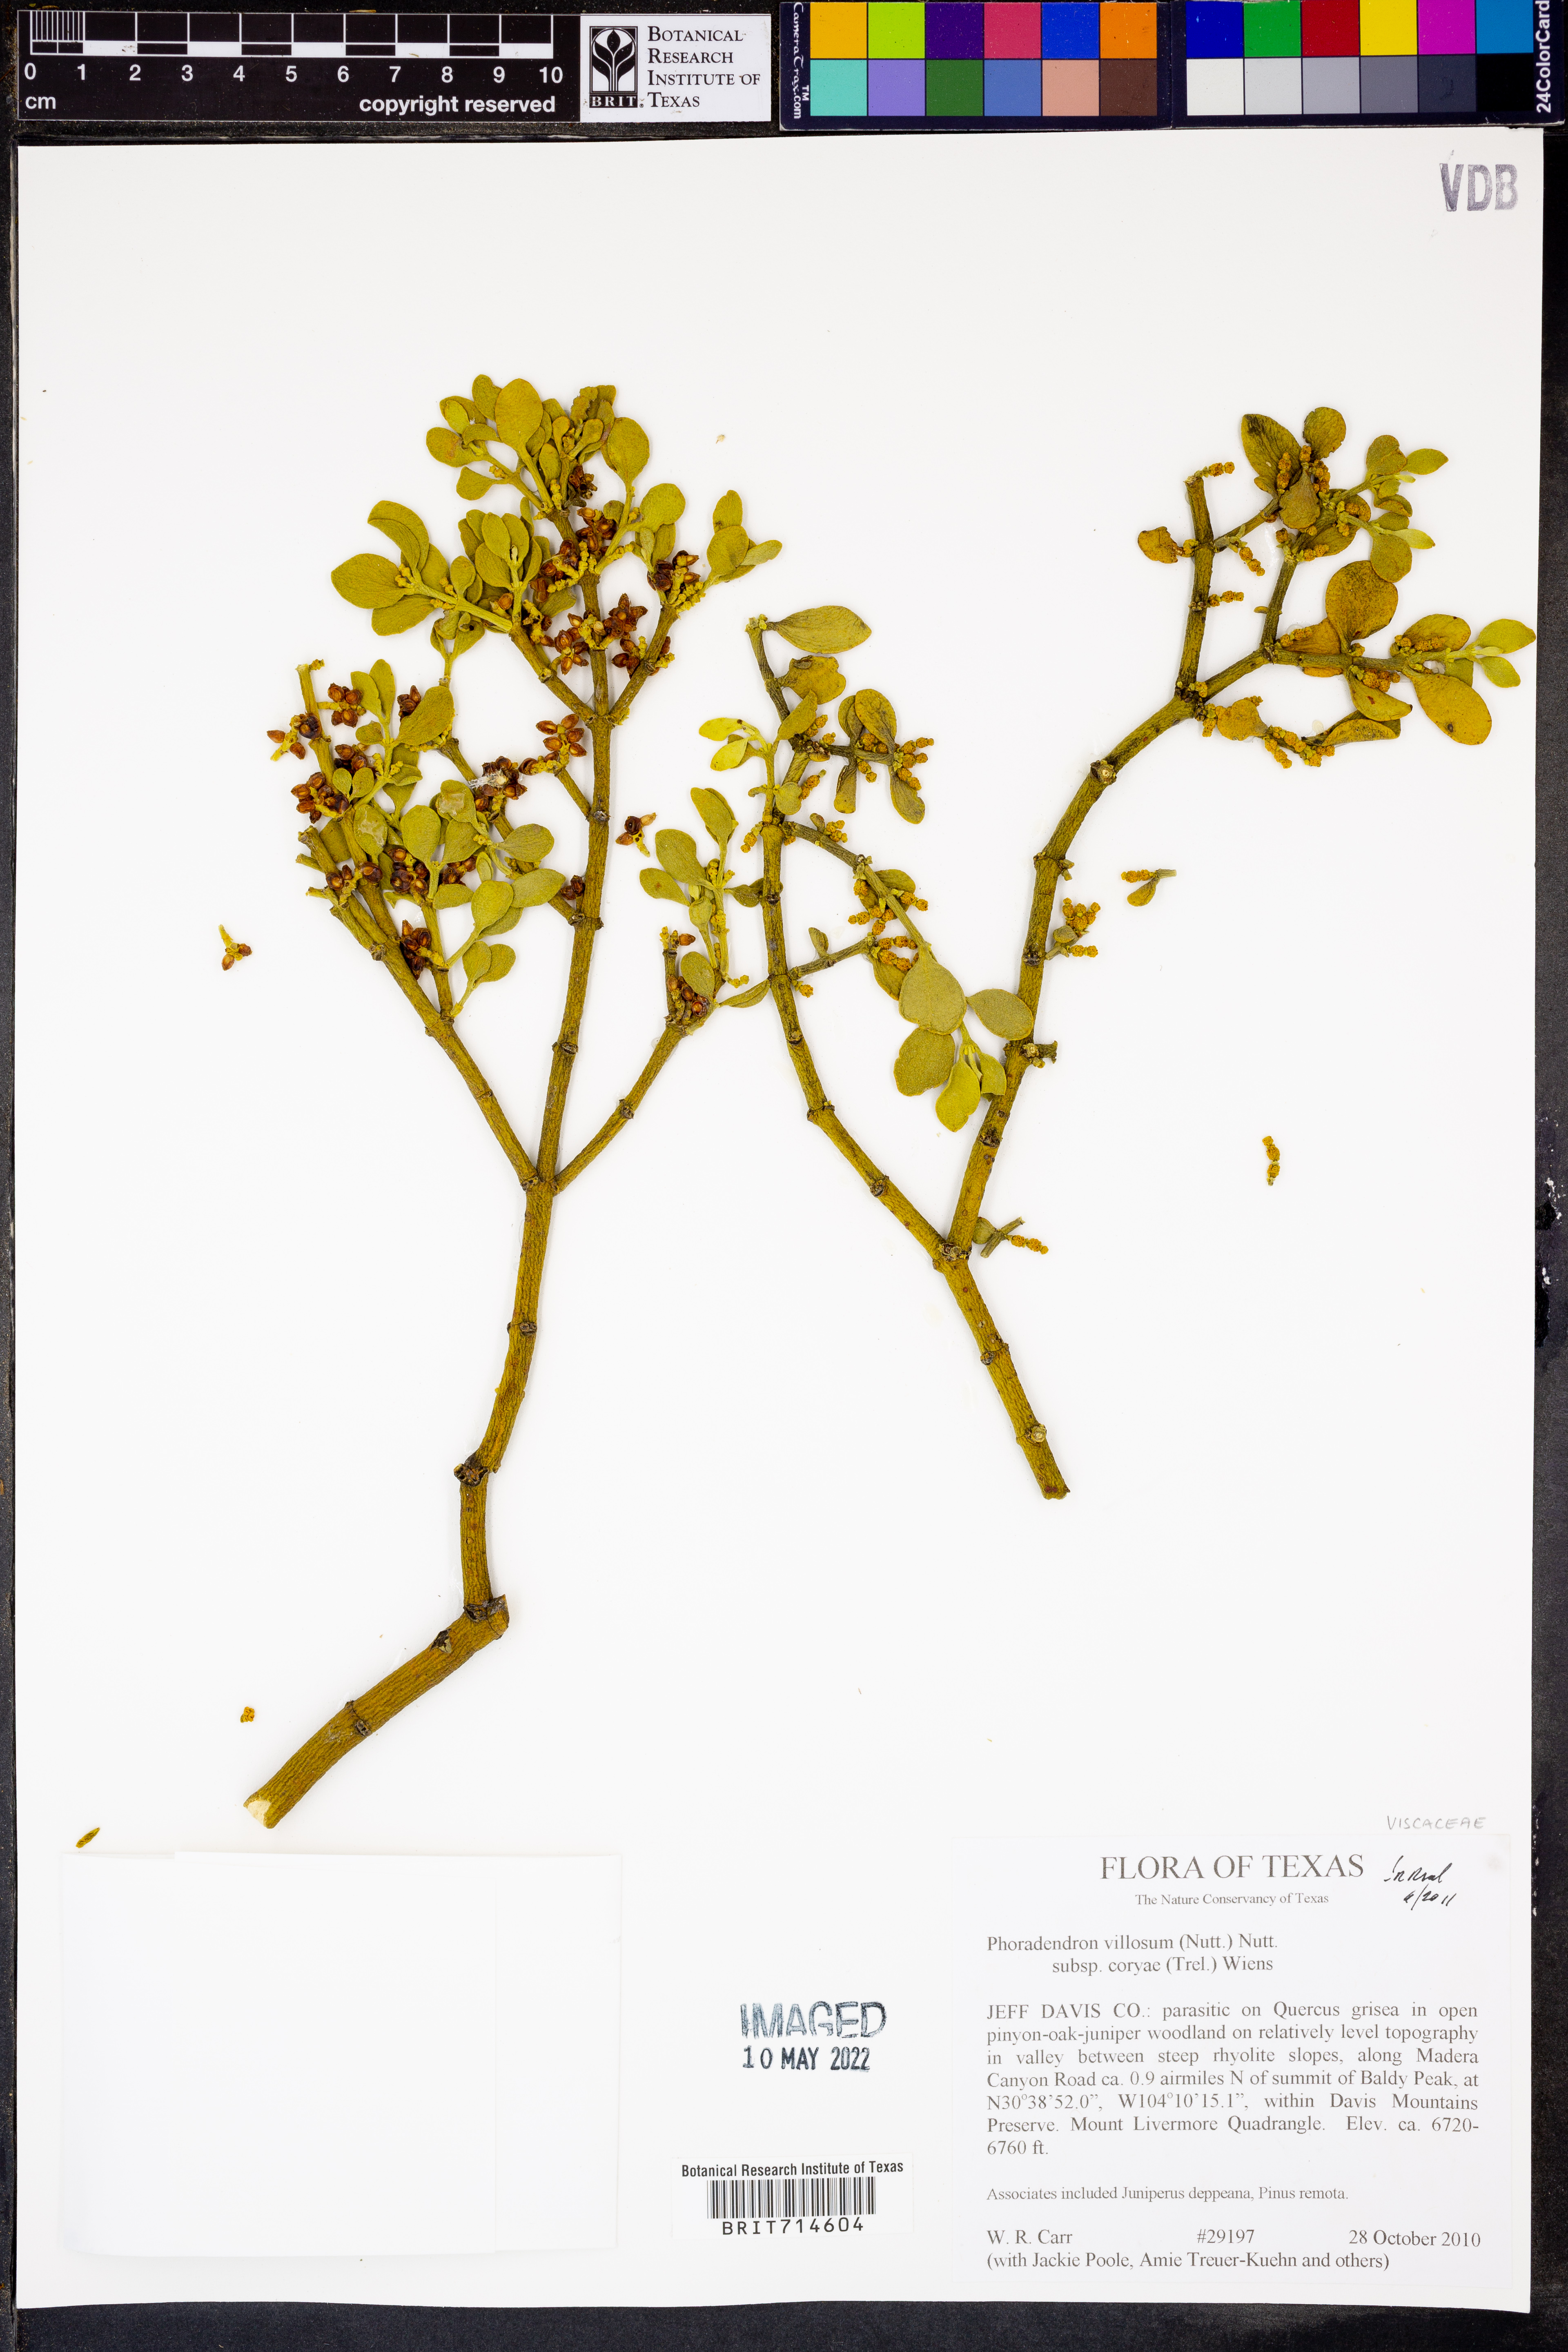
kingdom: Plantae
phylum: Tracheophyta
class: Magnoliopsida
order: Santalales
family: Viscaceae
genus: Phoradendron
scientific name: Phoradendron coryae
